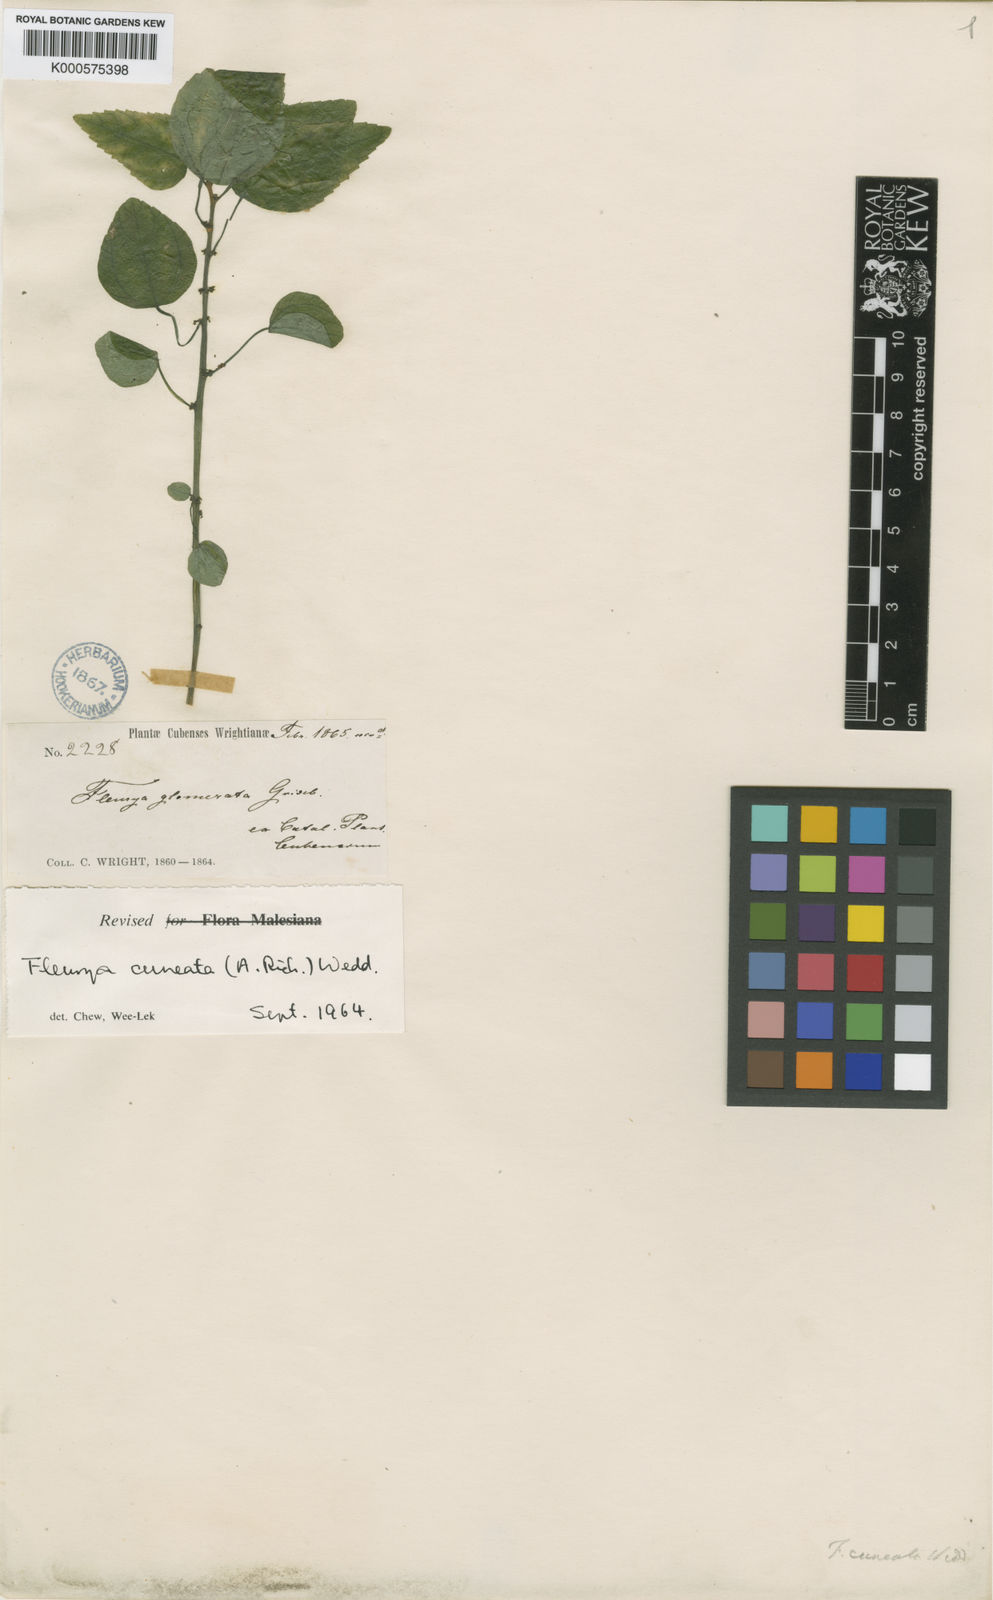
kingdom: Plantae
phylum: Tracheophyta
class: Magnoliopsida
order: Rosales
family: Urticaceae
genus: Laportea
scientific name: Laportea cuneata
